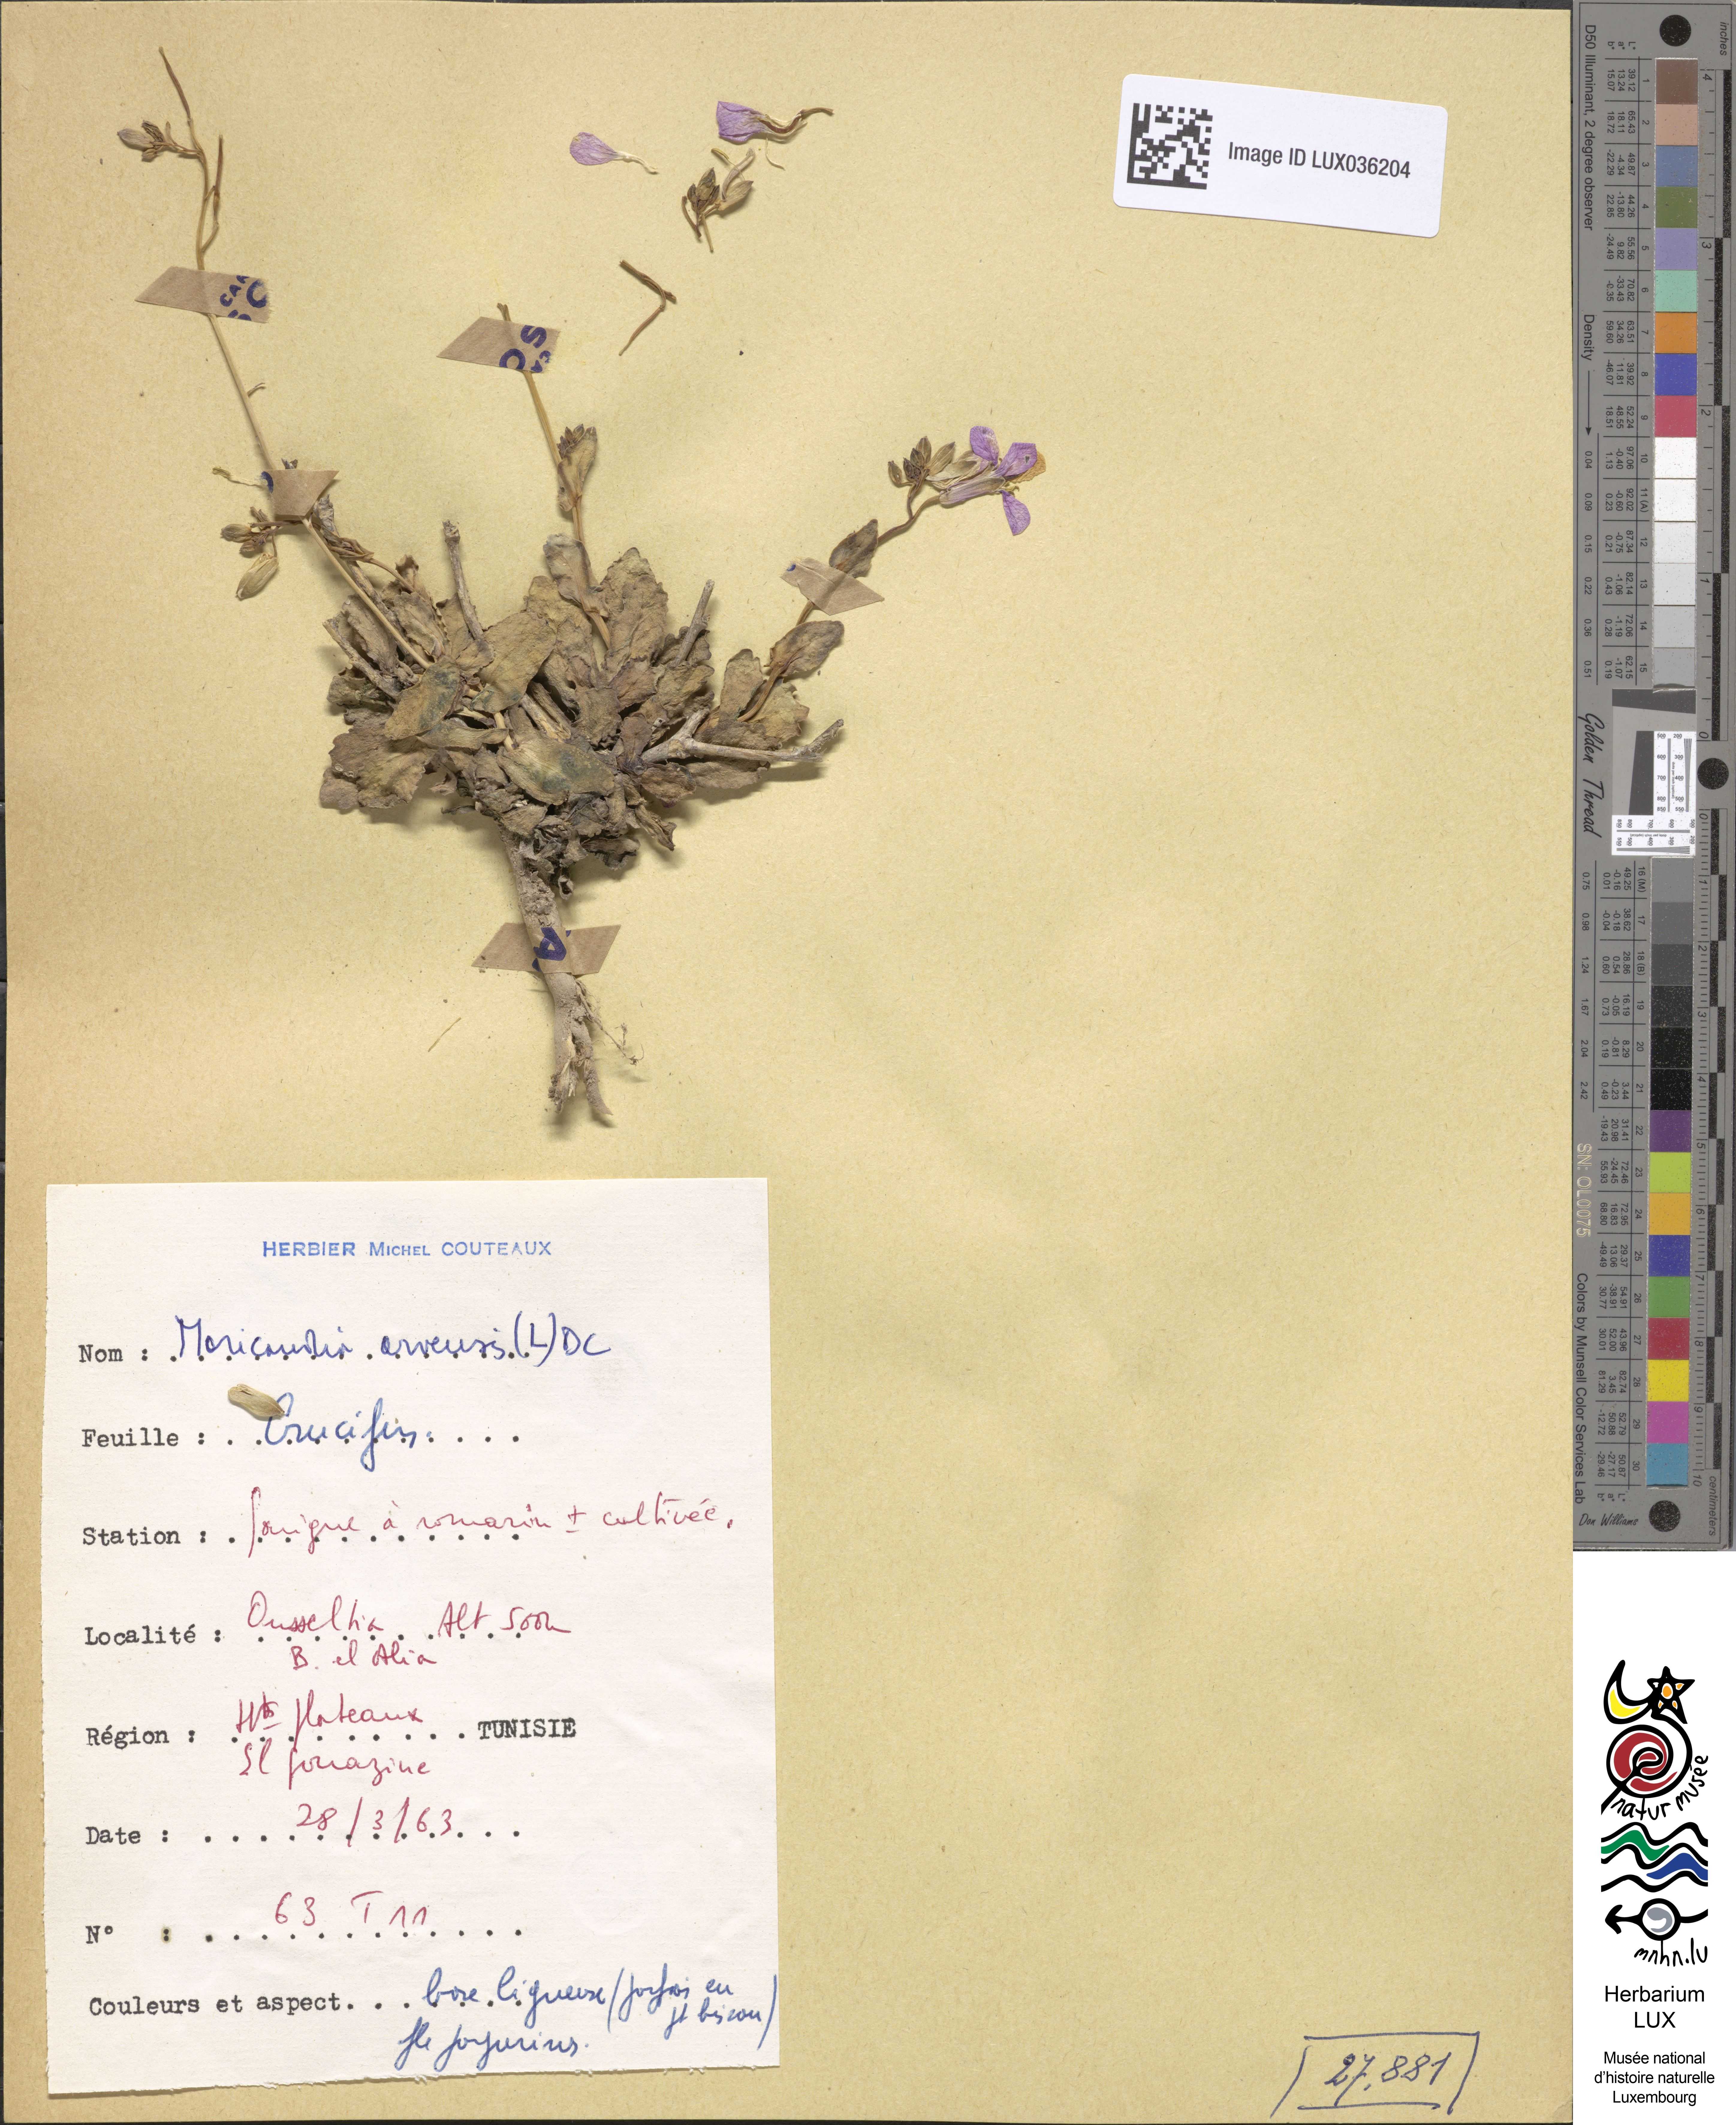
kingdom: Plantae
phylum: Tracheophyta
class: Magnoliopsida
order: Brassicales
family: Brassicaceae
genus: Moricandia
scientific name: Moricandia arvensis
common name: Purple mistress
